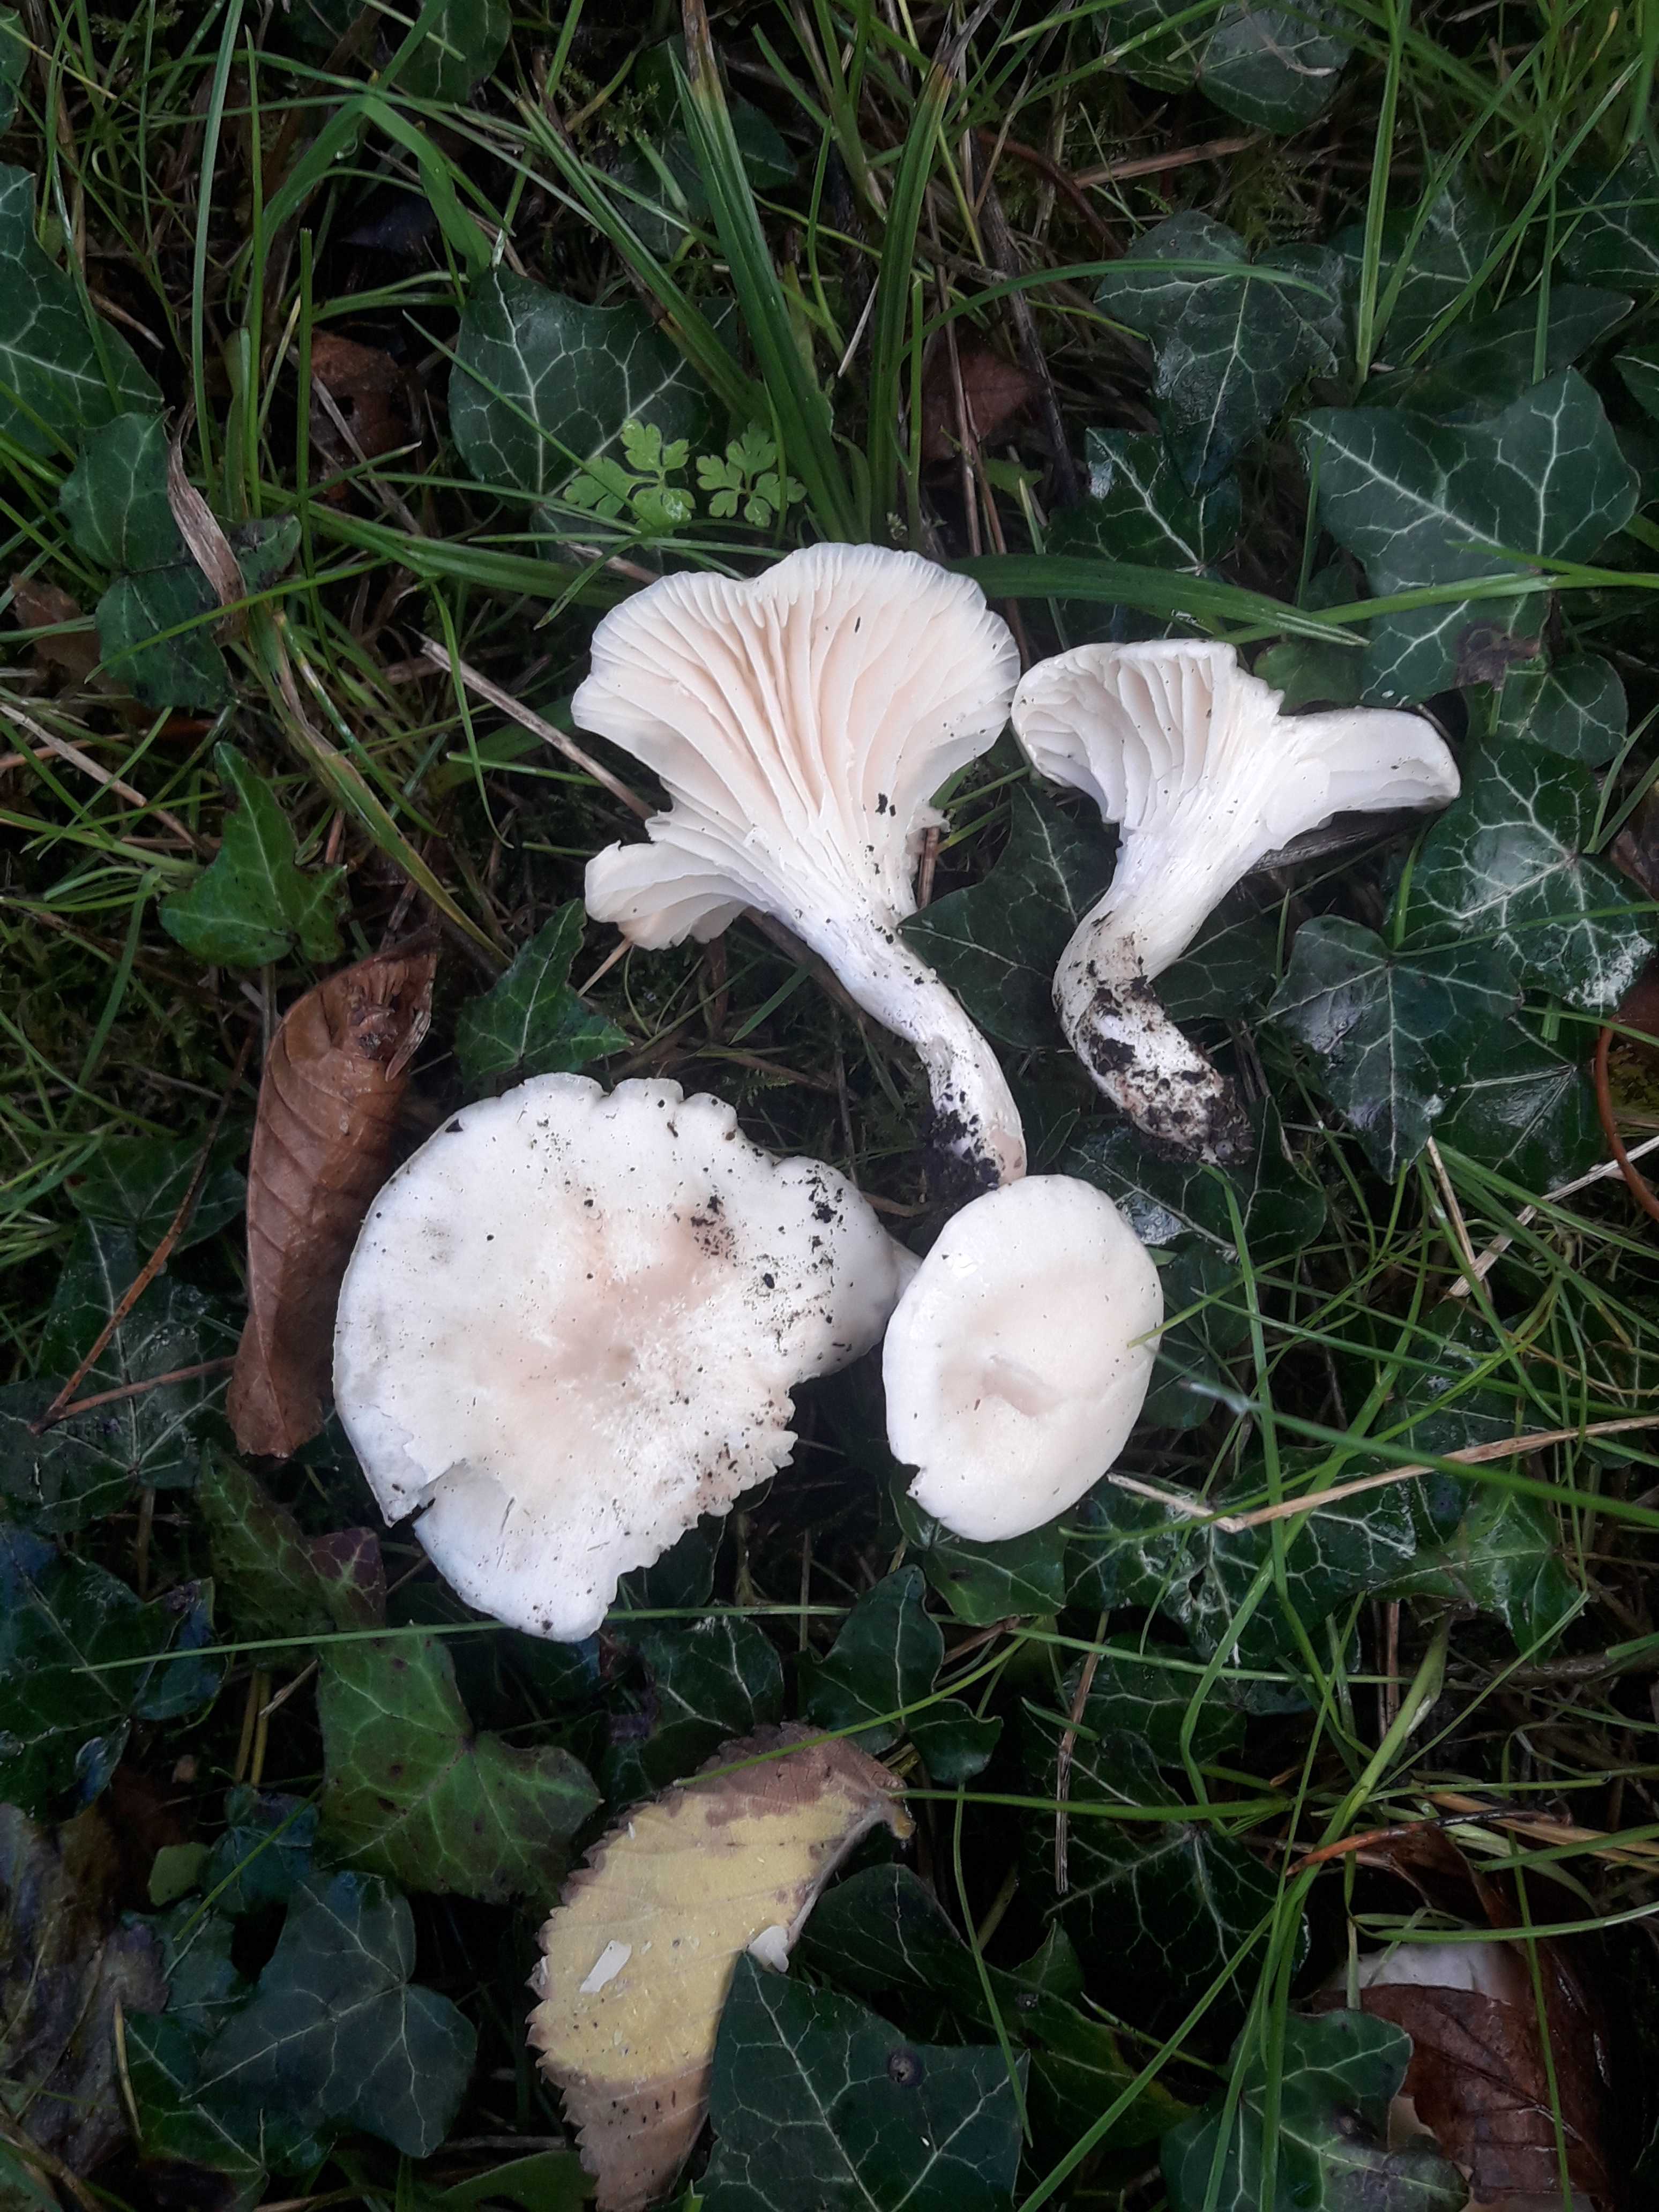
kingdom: Fungi
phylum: Basidiomycota
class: Agaricomycetes
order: Agaricales
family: Hygrophoraceae
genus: Cuphophyllus
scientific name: Cuphophyllus virgineus
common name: snehvid vokshat
